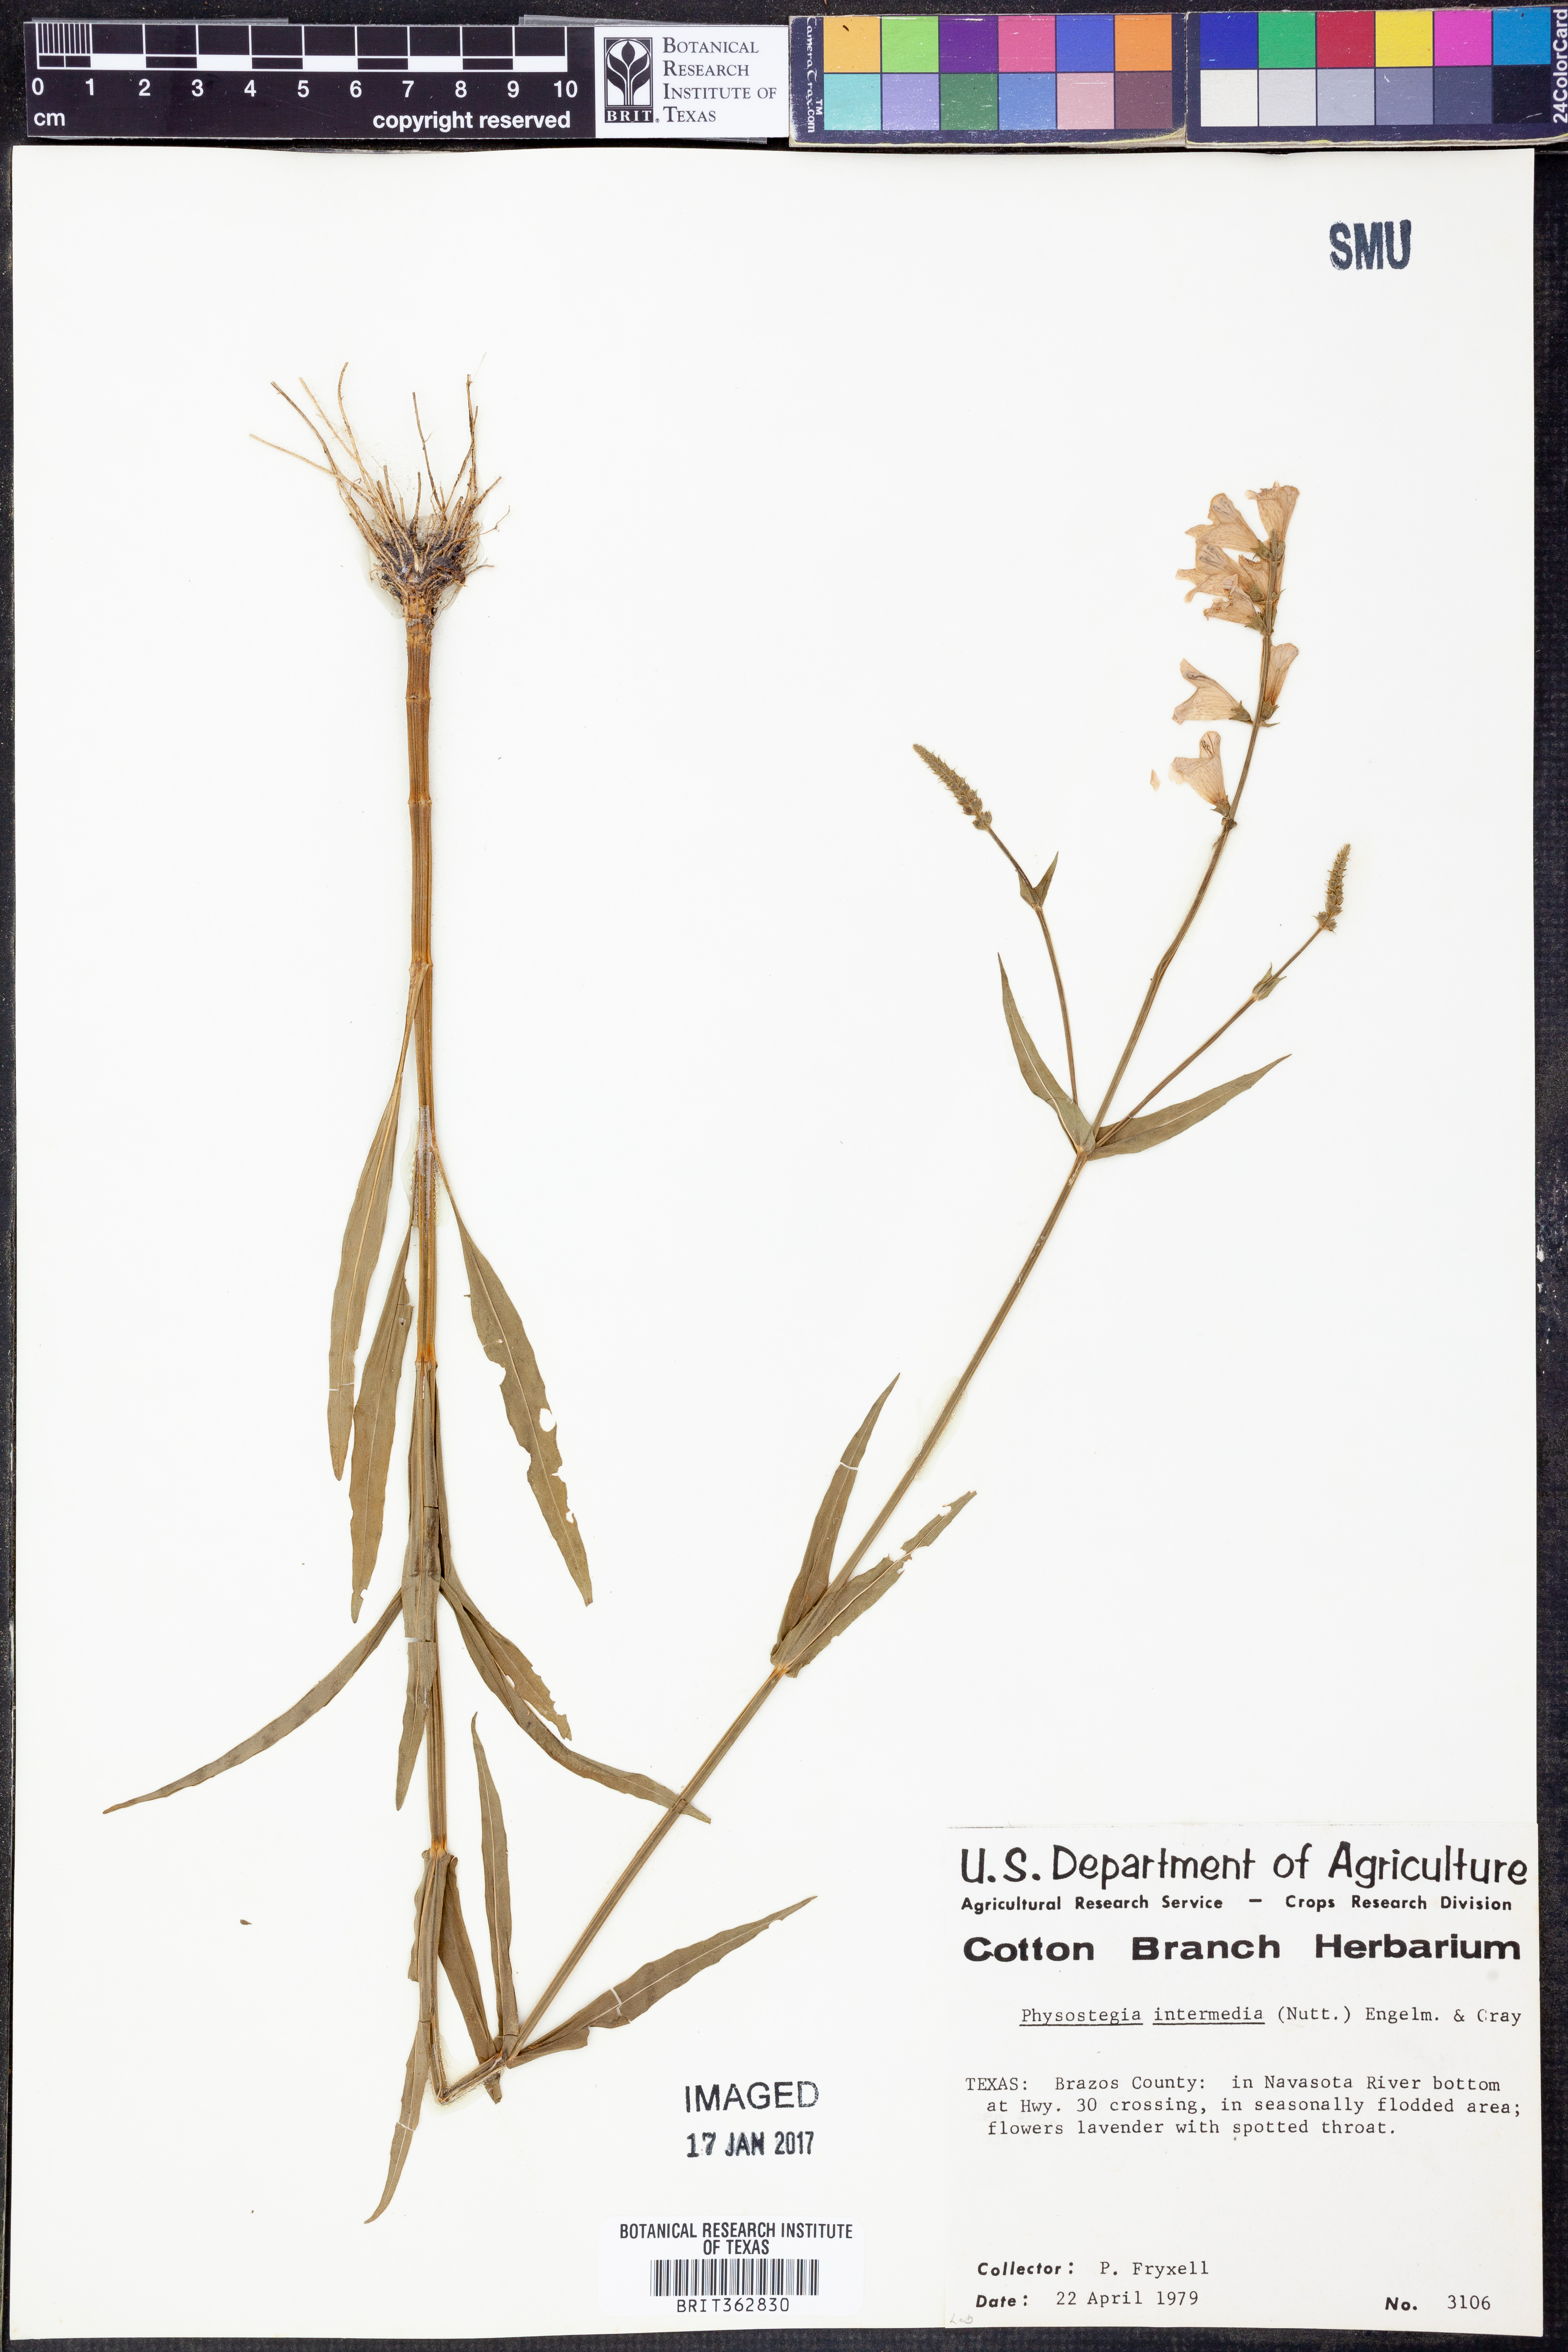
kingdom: Plantae
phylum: Tracheophyta
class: Magnoliopsida
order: Lamiales
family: Lamiaceae
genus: Physostegia
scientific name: Physostegia intermedia
